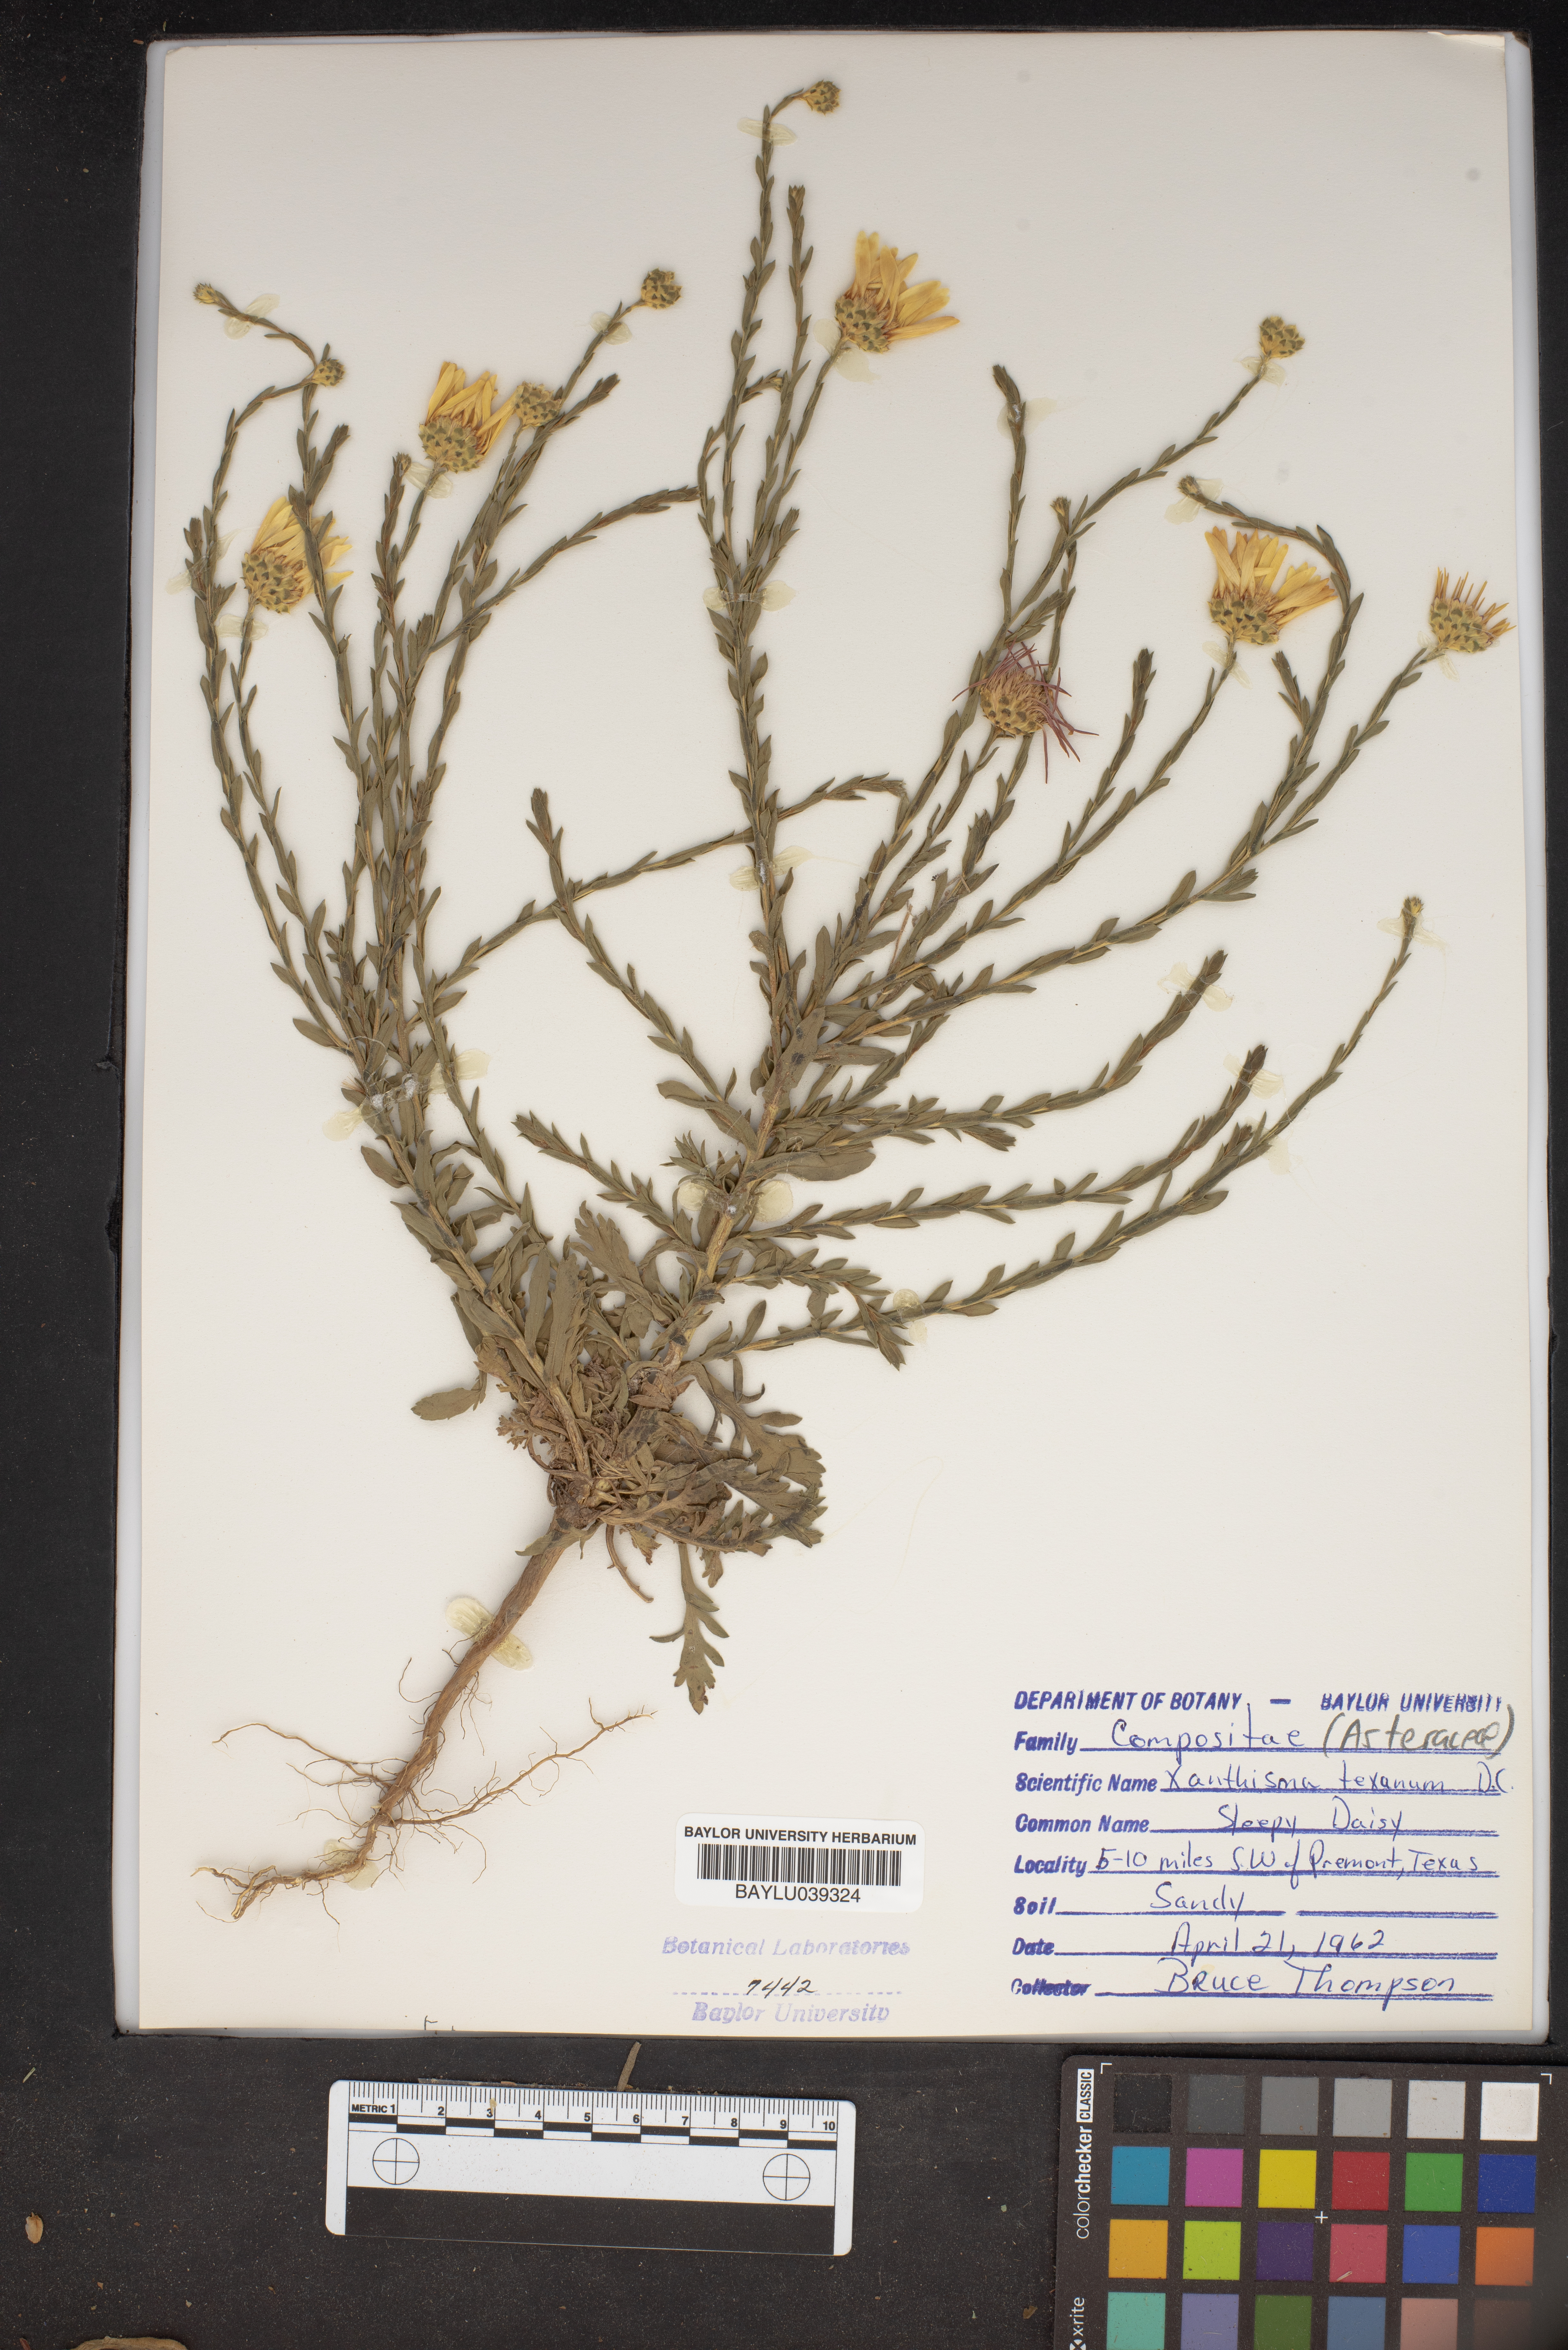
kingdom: Plantae
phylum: Tracheophyta
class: Magnoliopsida
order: Asterales
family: Asteraceae
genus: Xanthisma
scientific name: Xanthisma texanum
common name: Texas sleepy daisy
